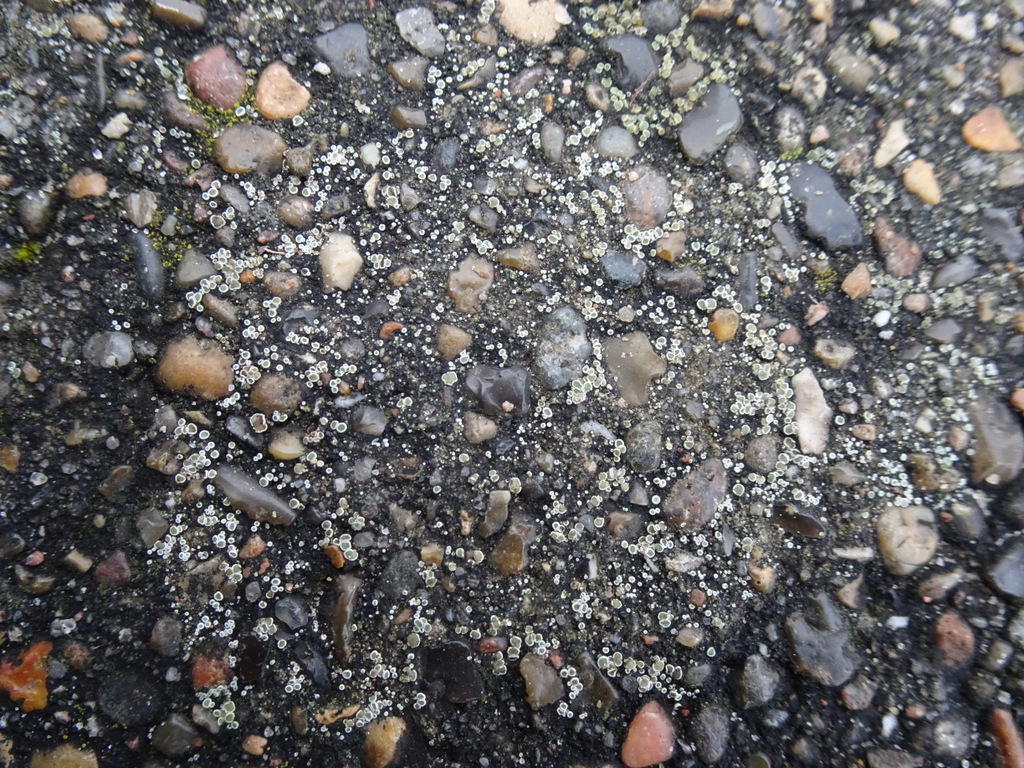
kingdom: Fungi
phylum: Ascomycota
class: Lecanoromycetes
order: Lecanorales
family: Lecanoraceae
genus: Polyozosia
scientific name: Polyozosia dispersa
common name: spredt kantskivelav
